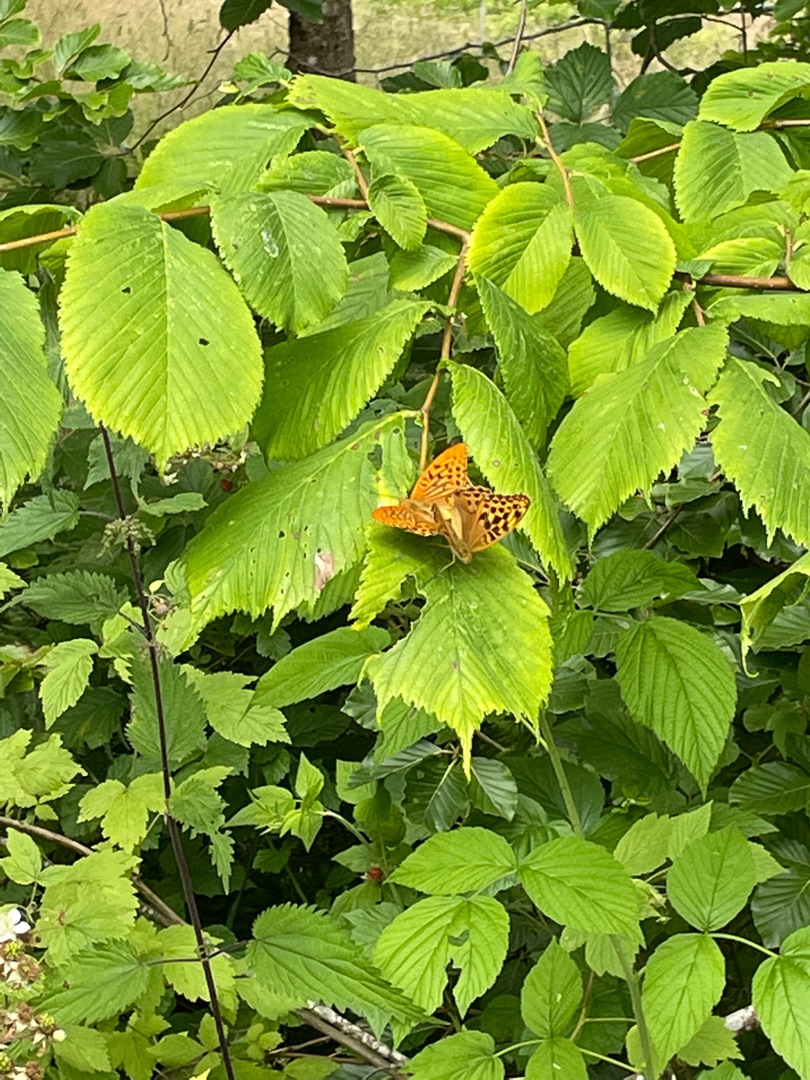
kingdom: Animalia
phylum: Arthropoda
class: Insecta
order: Lepidoptera
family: Nymphalidae
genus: Argynnis
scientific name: Argynnis paphia
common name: Kejserkåbe
